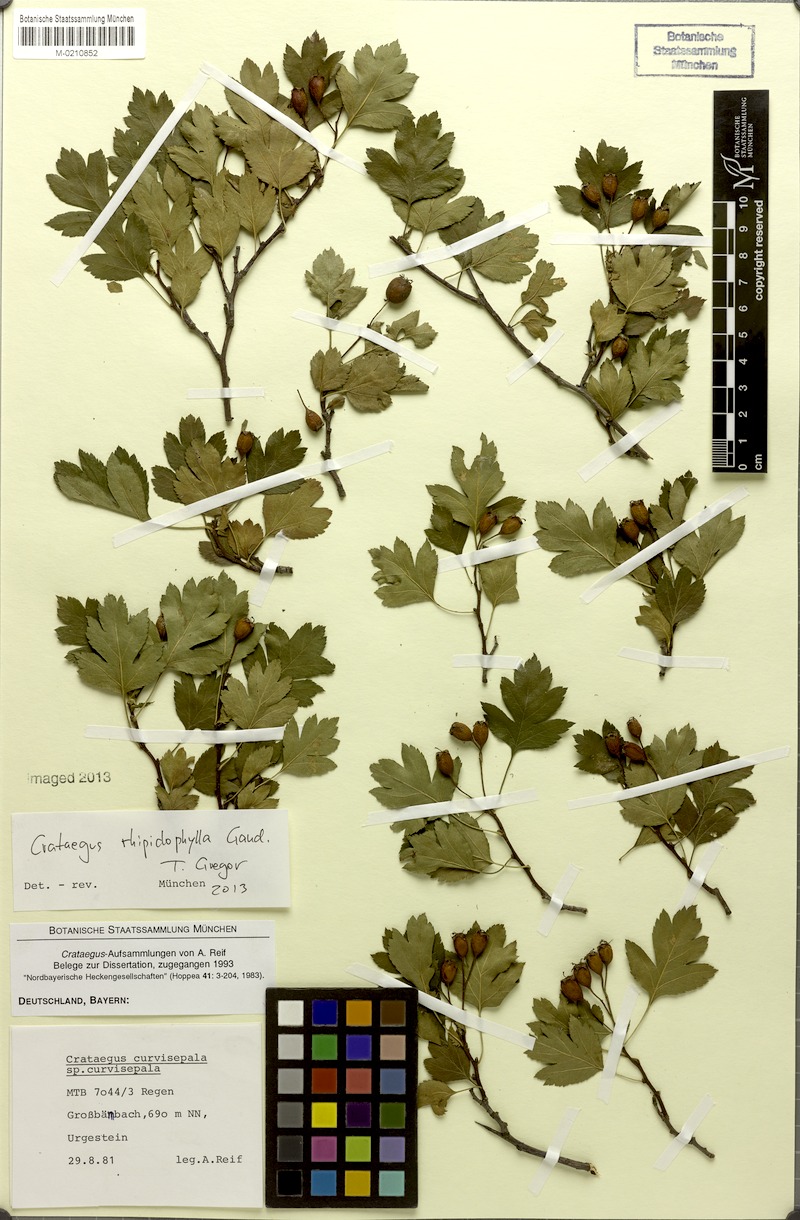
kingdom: Plantae
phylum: Tracheophyta
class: Magnoliopsida
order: Rosales
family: Rosaceae
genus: Crataegus
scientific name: Crataegus rhipidophylla
